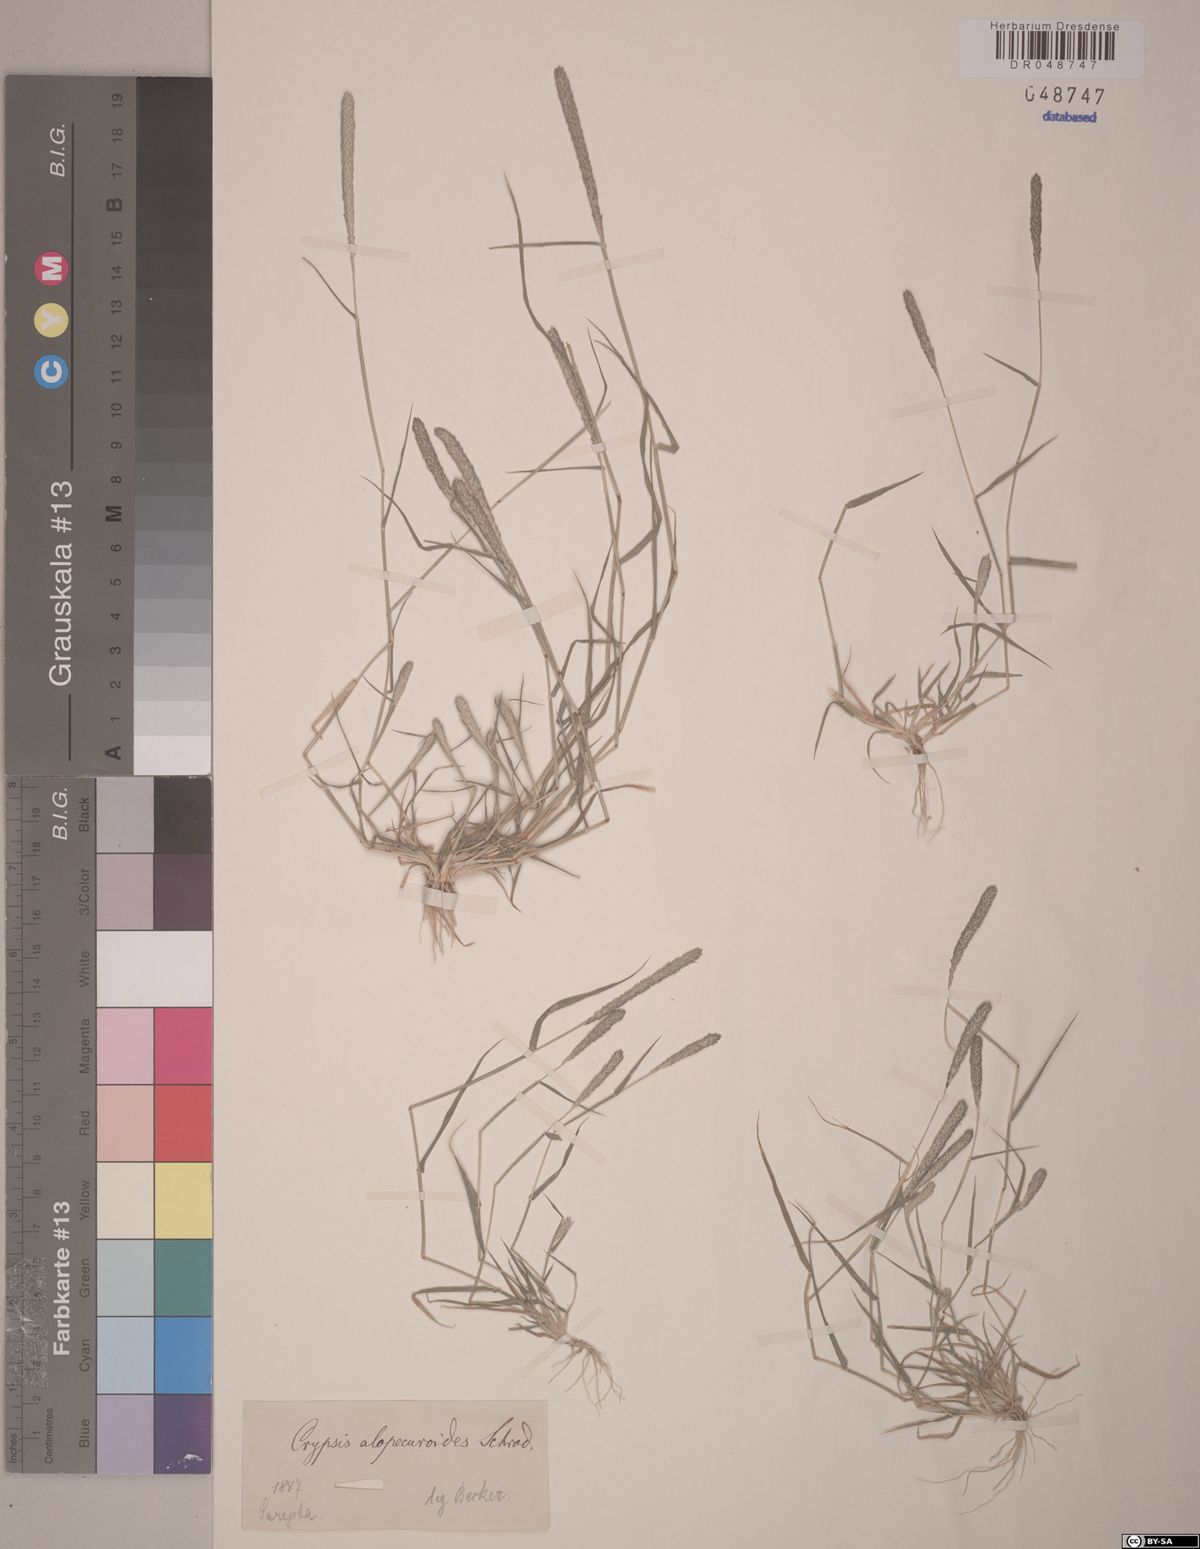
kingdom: Plantae
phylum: Tracheophyta
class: Liliopsida
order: Poales
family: Poaceae
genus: Sporobolus
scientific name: Sporobolus alopecuroides
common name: Foxtail pricklegrass
